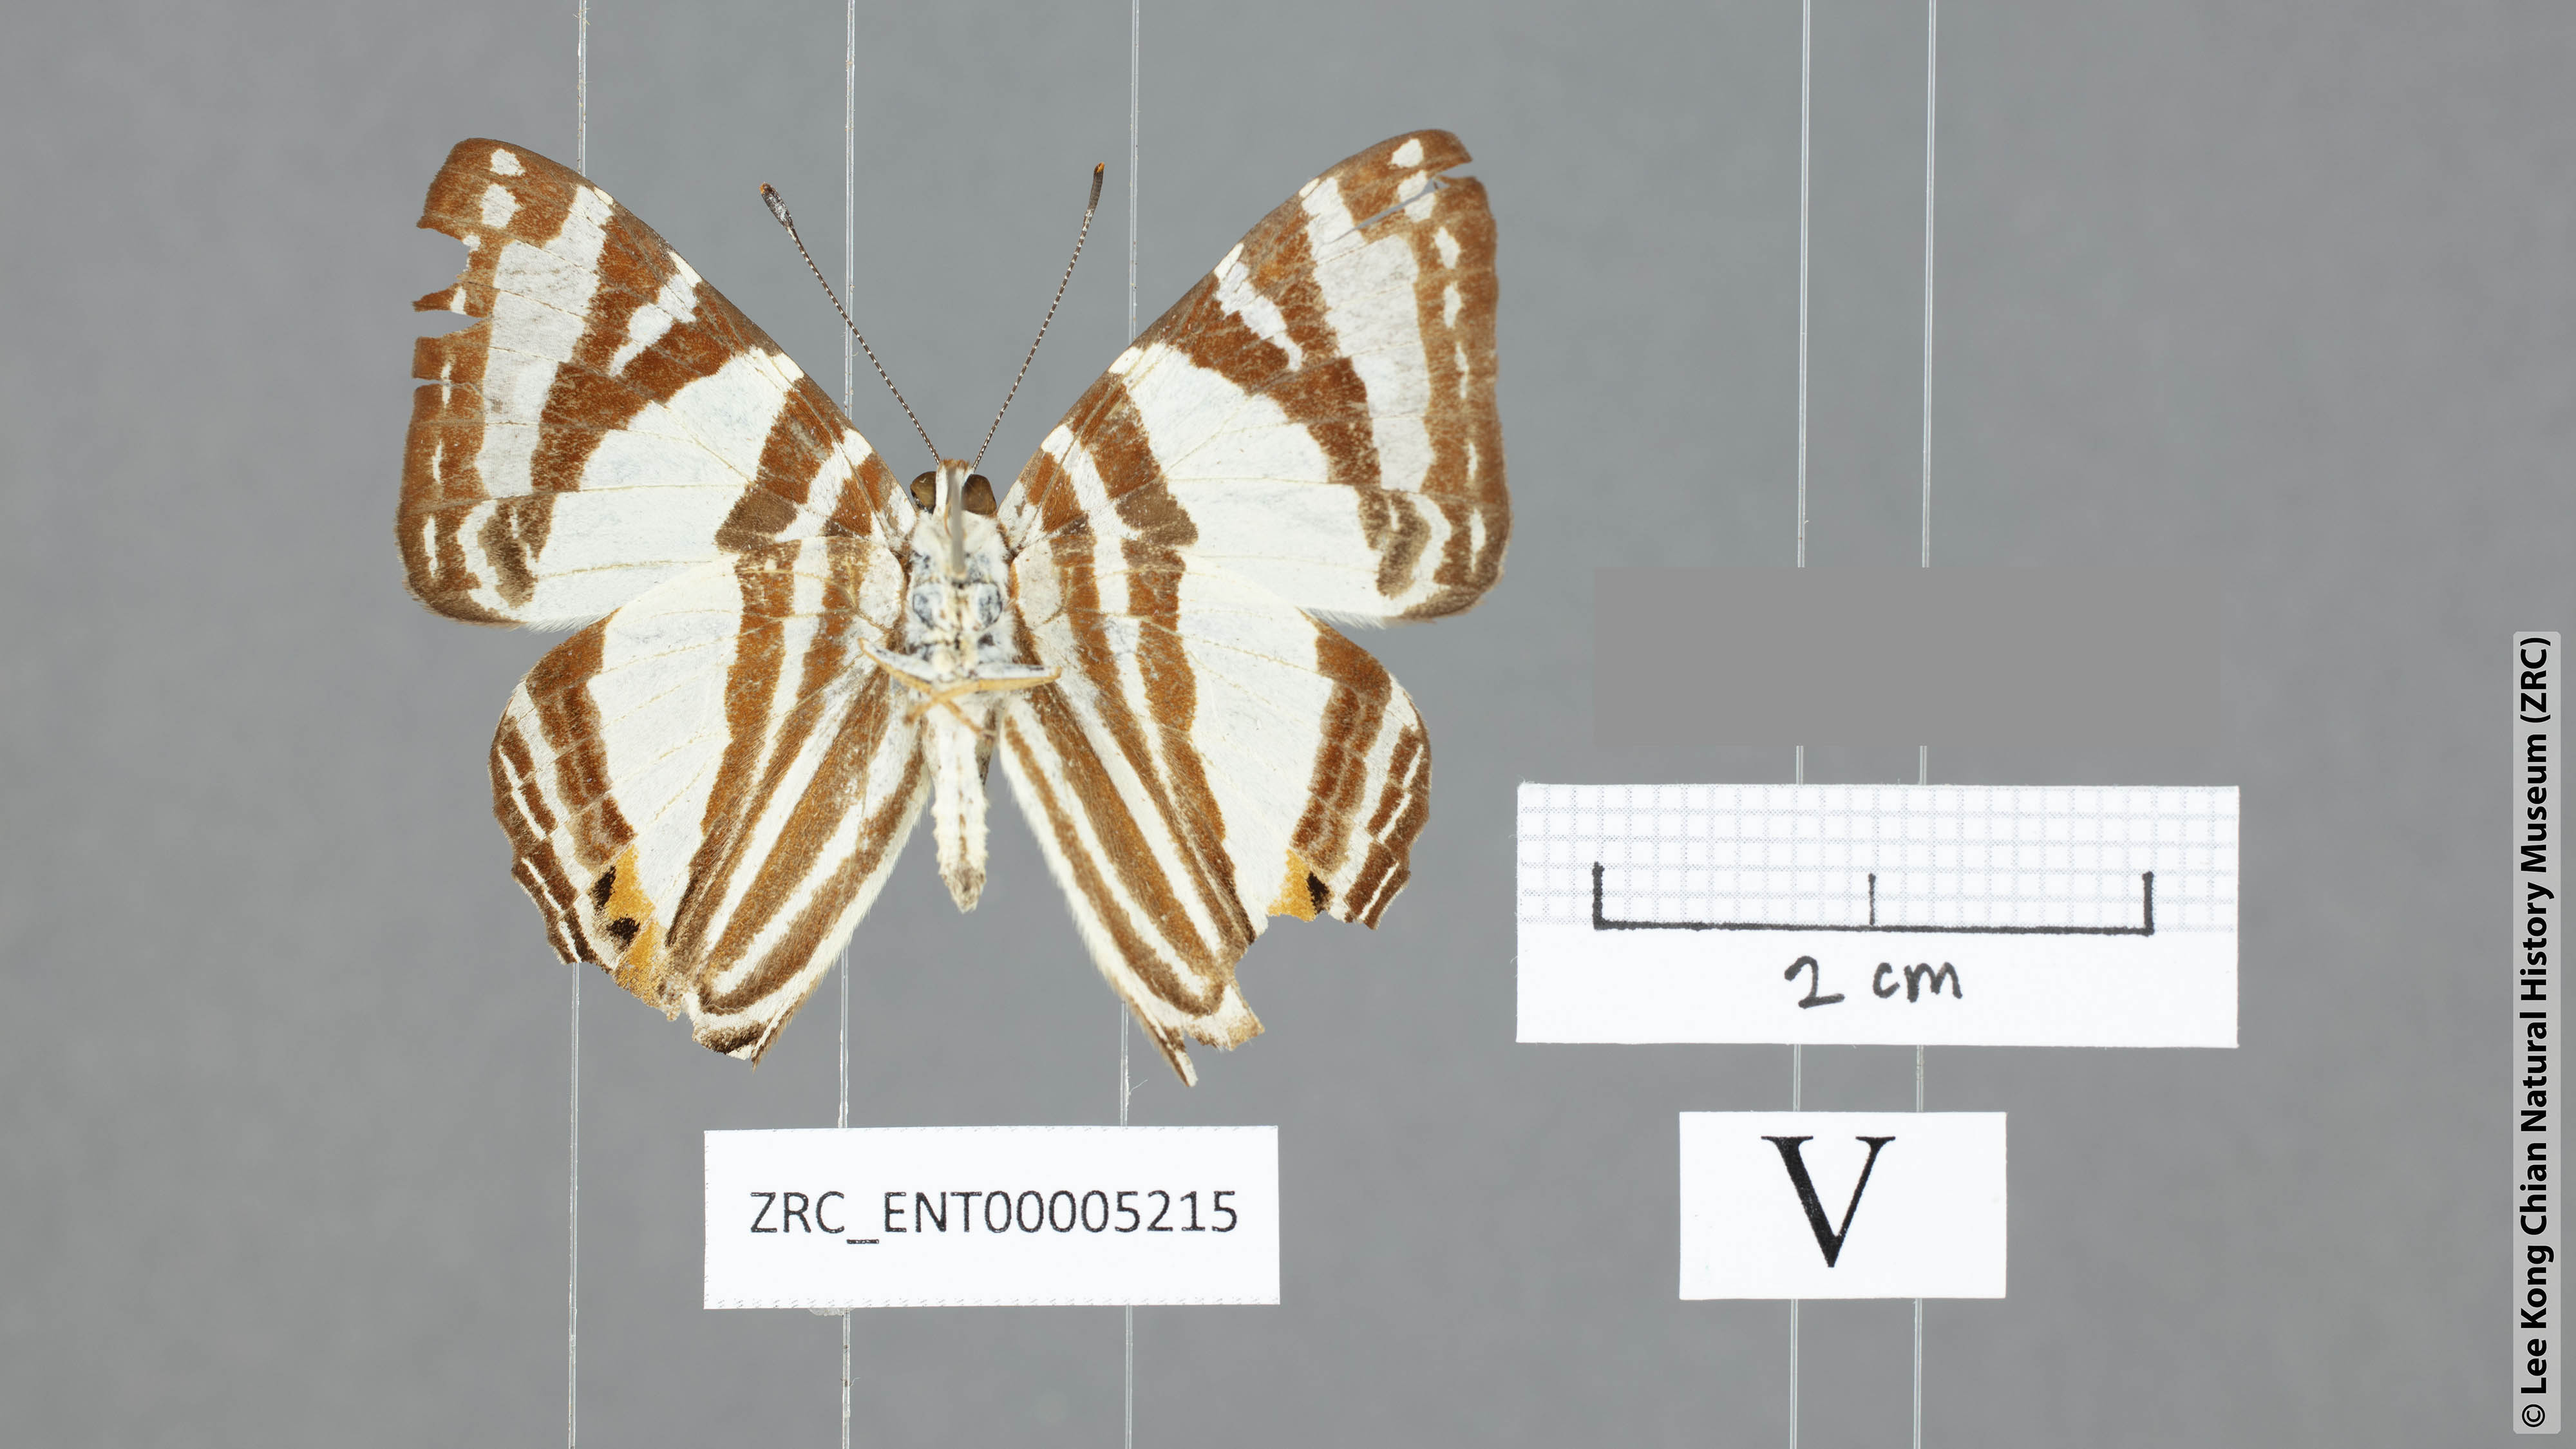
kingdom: Animalia
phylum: Arthropoda
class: Insecta
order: Lepidoptera
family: Lycaenidae
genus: Dodona
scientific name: Dodona deodata
